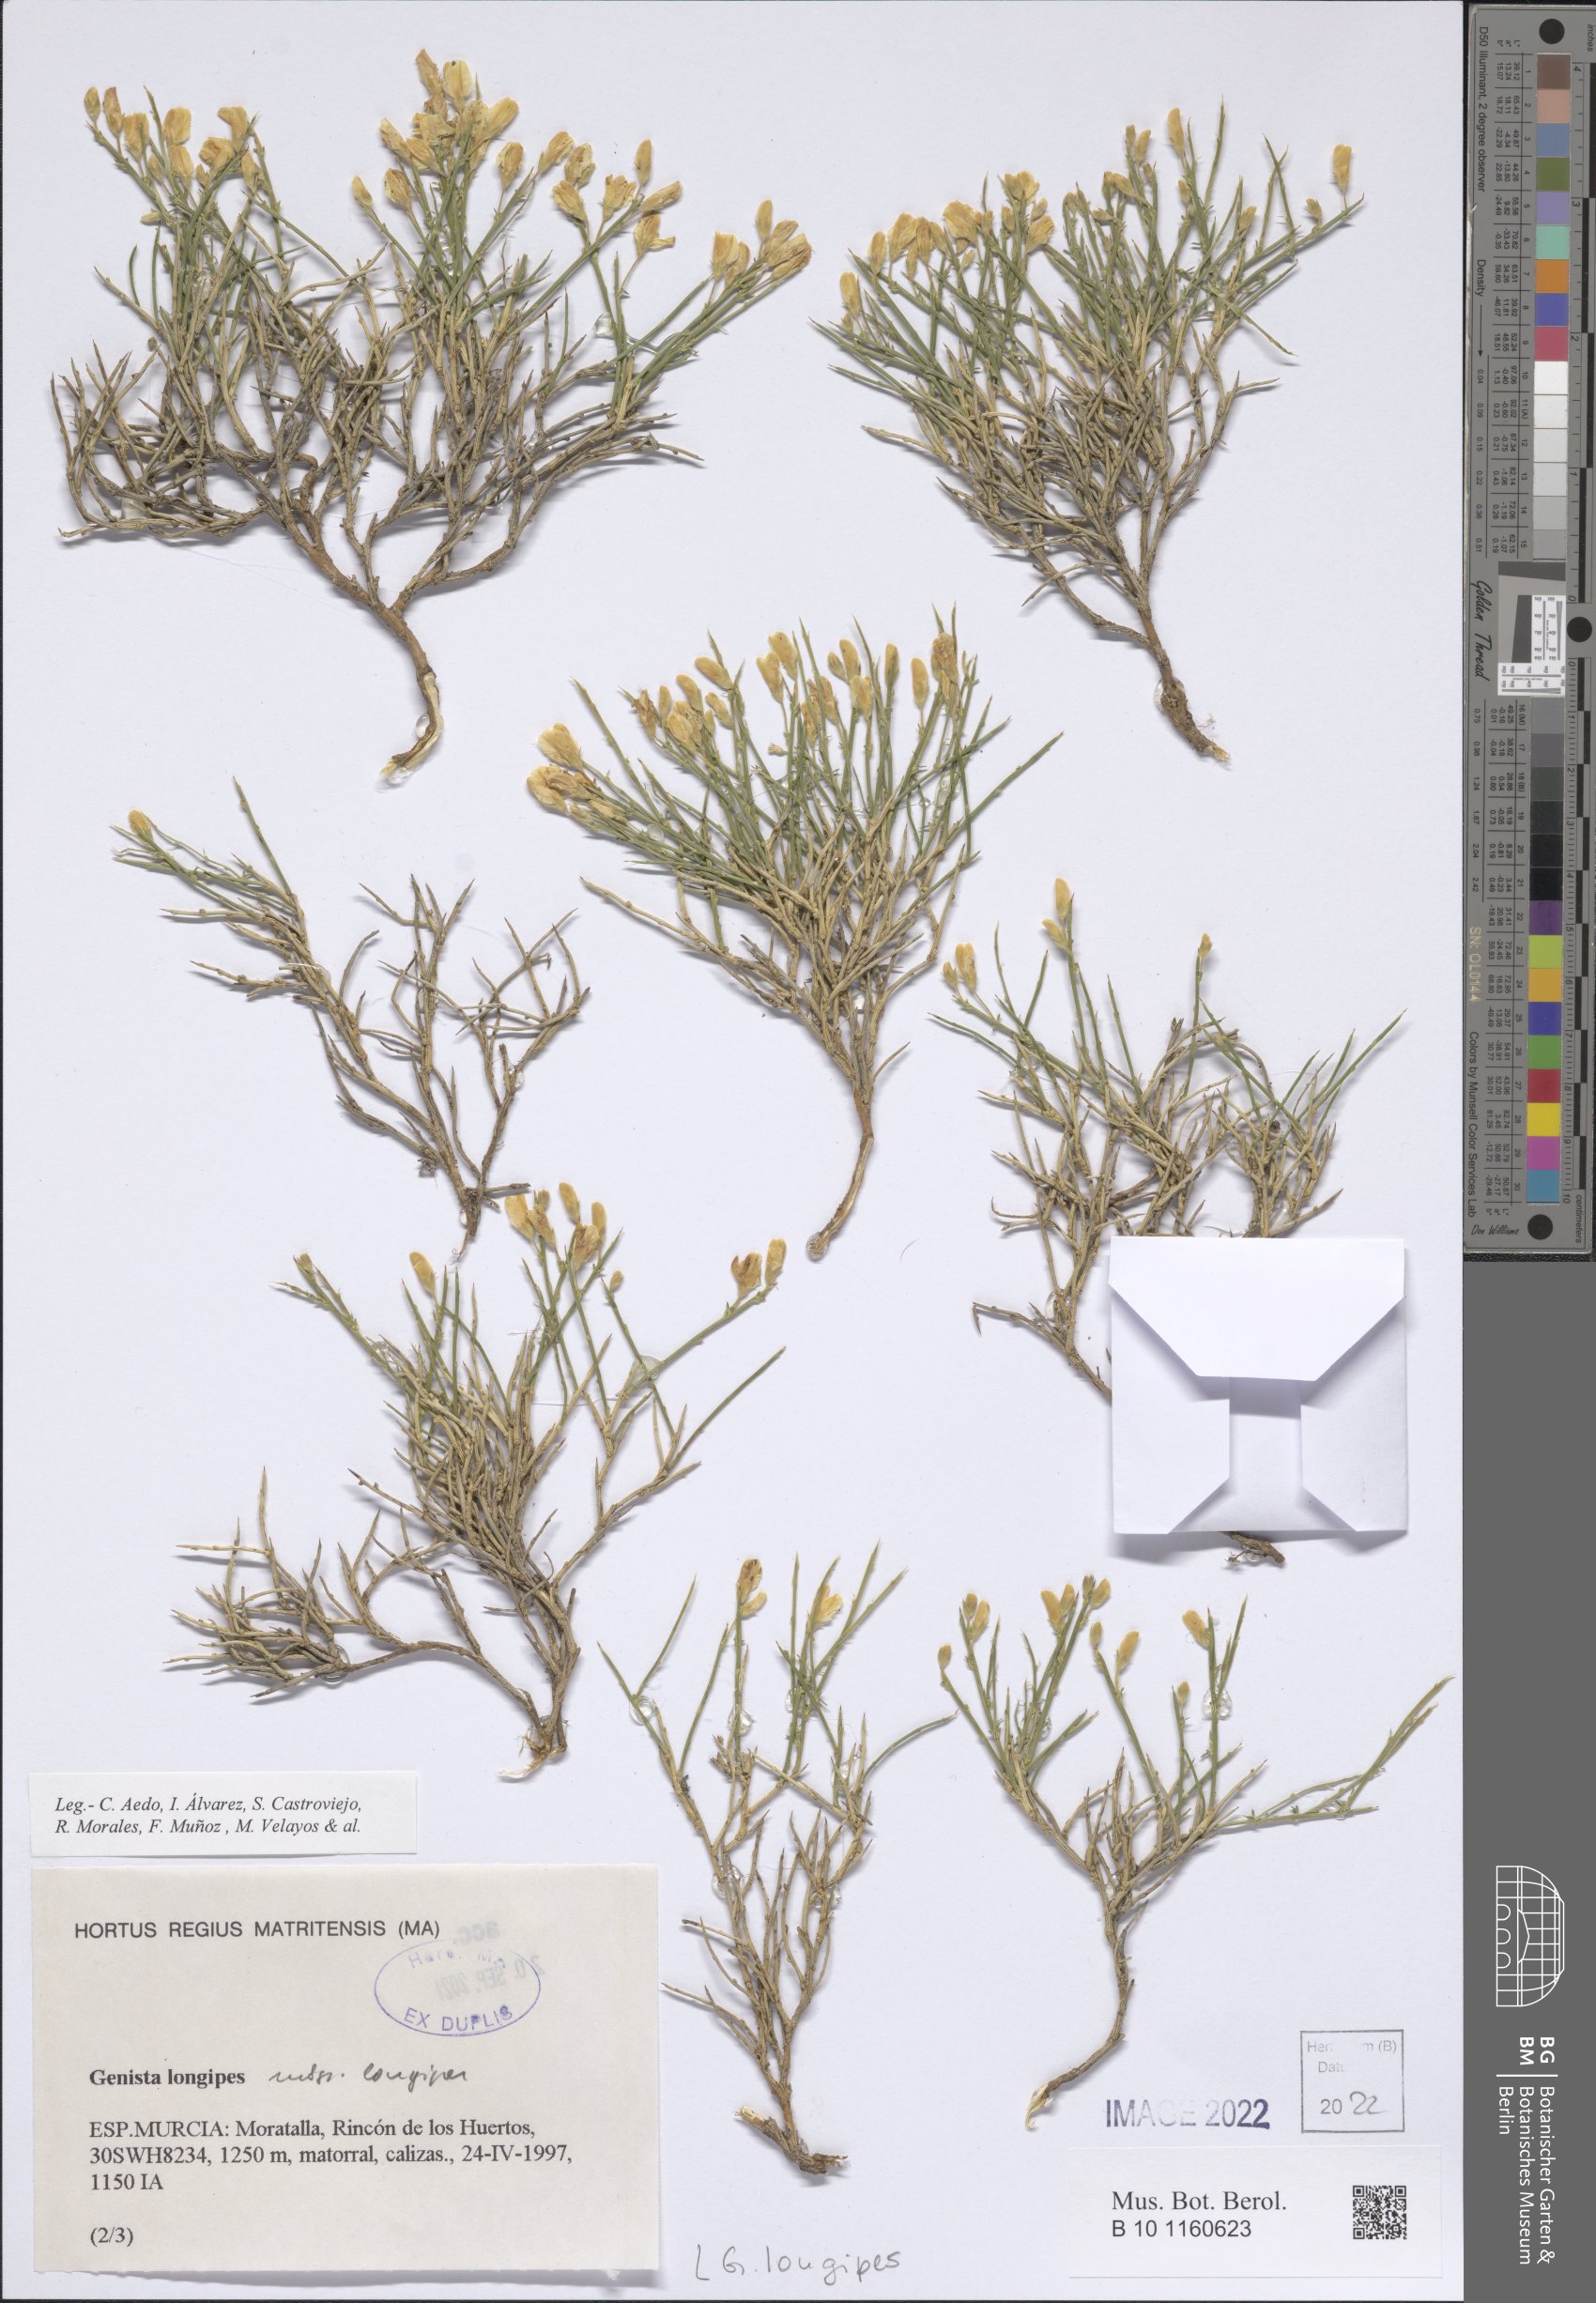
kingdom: Plantae
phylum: Tracheophyta
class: Magnoliopsida
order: Fabales
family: Fabaceae
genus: Genista
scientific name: Genista longipes
